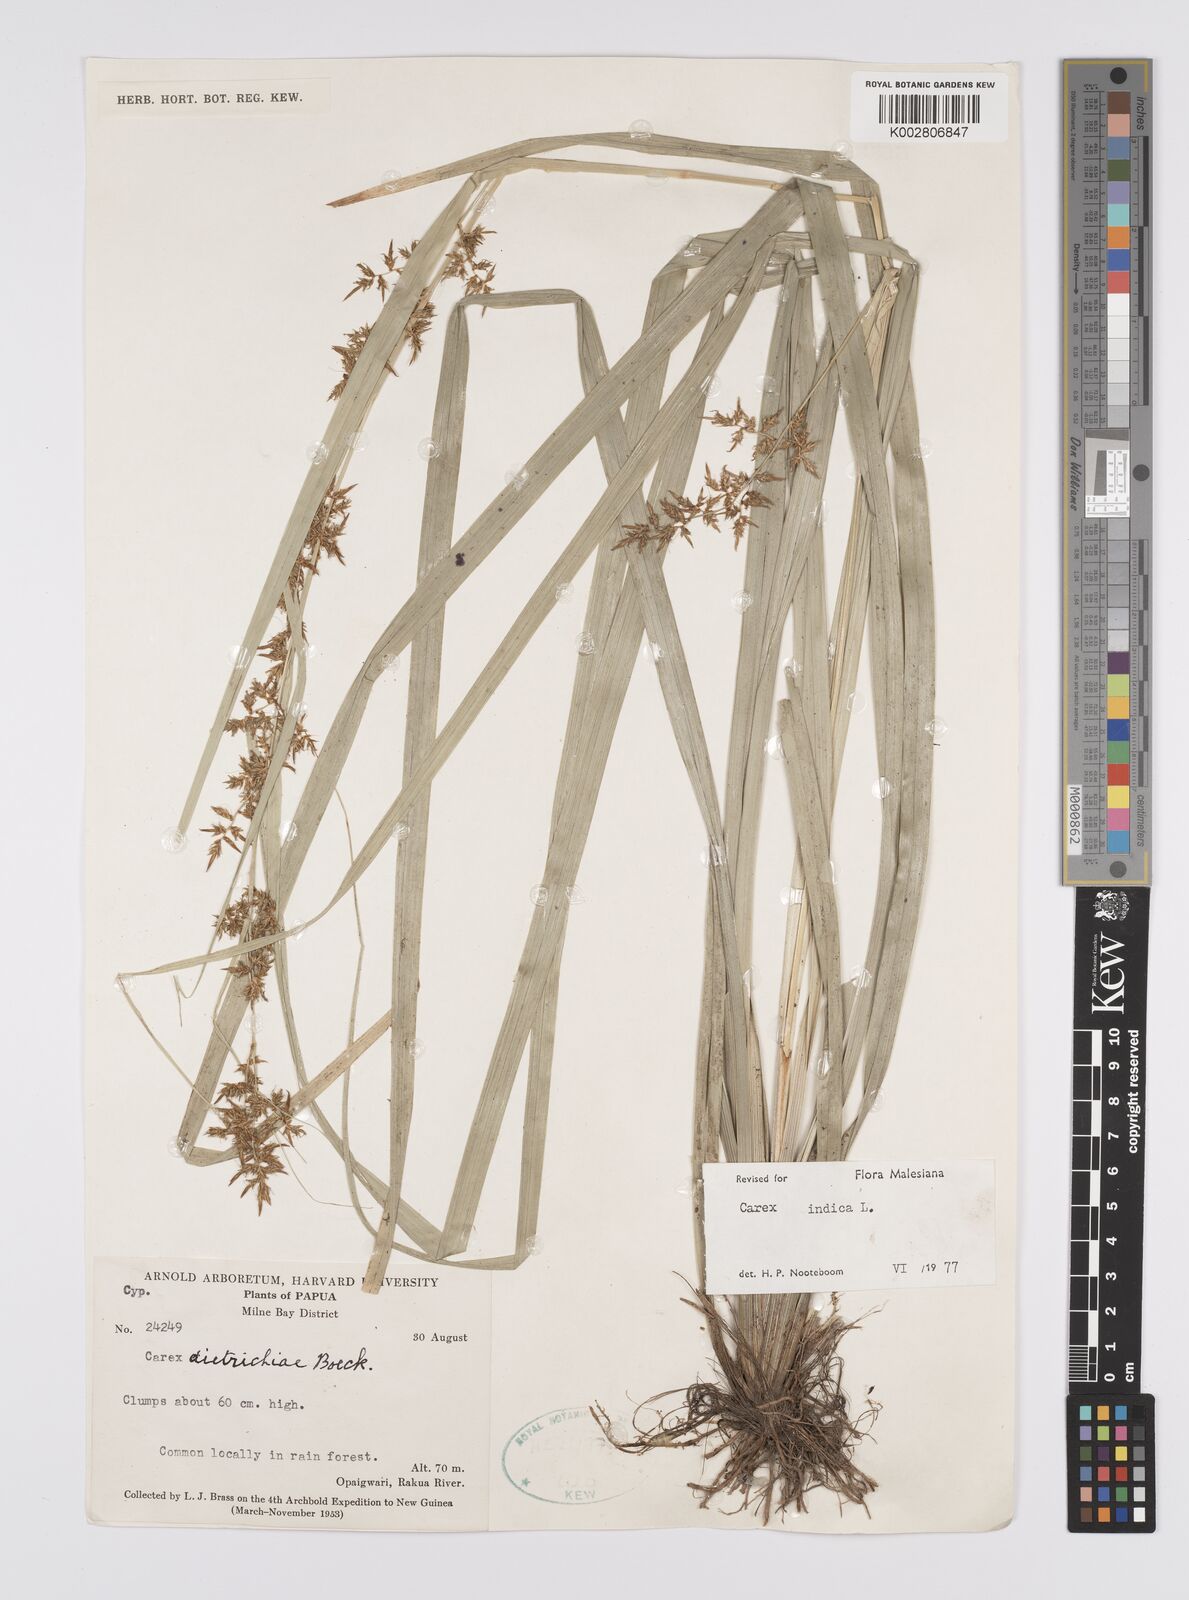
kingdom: Plantae
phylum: Tracheophyta
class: Liliopsida
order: Poales
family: Cyperaceae
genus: Carex
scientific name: Carex indica
